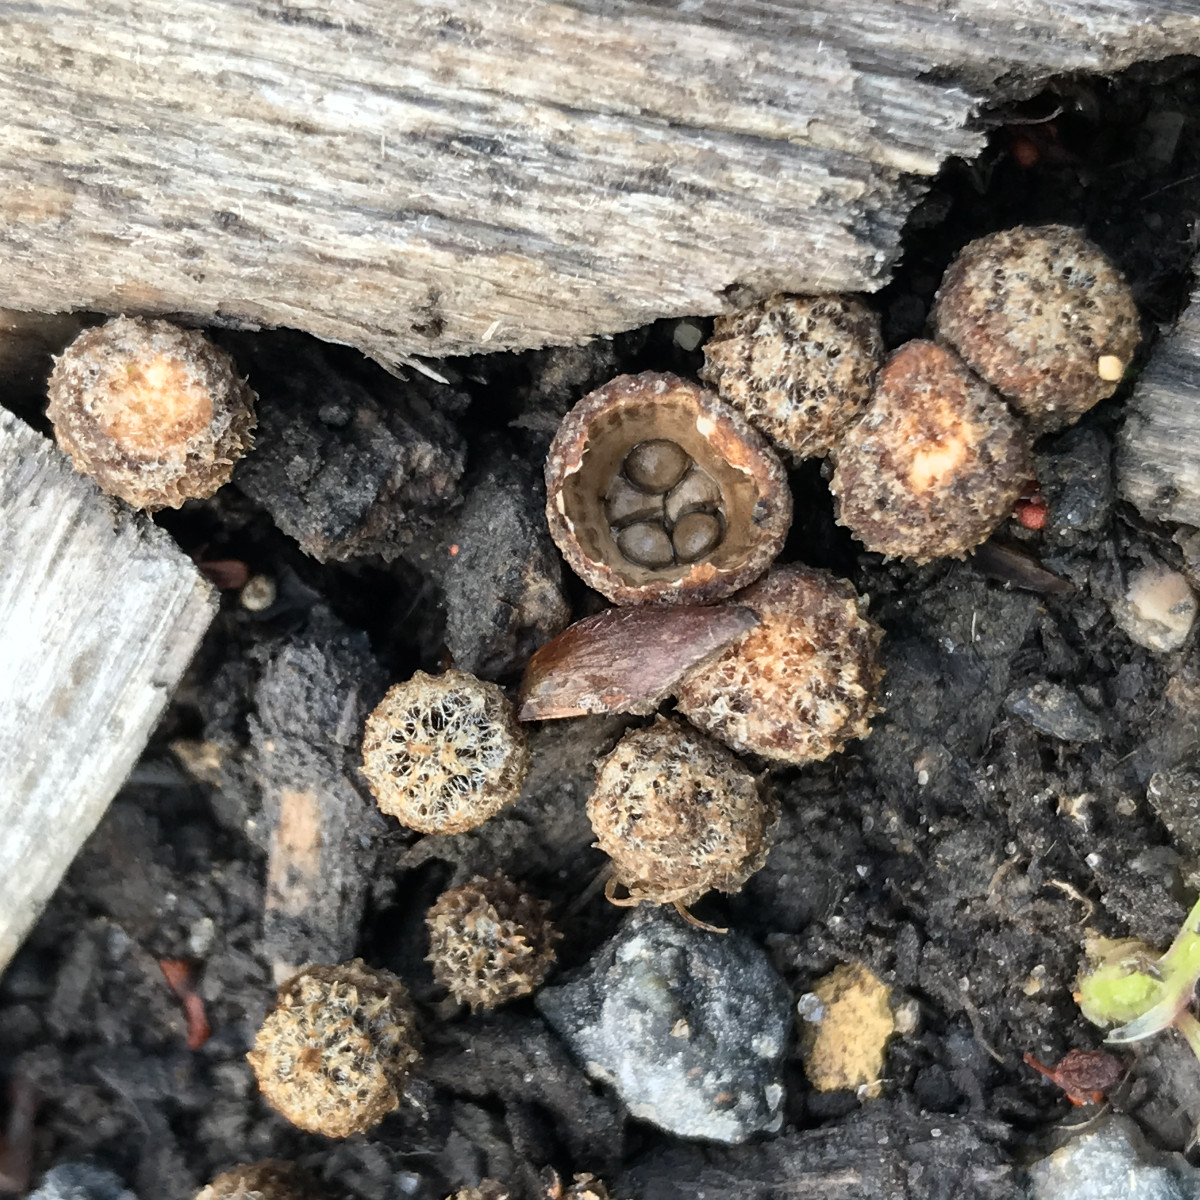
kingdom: Fungi
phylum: Basidiomycota
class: Agaricomycetes
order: Agaricales
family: Agaricaceae
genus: Cyathus
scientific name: Cyathus striatus
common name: stribet redesvamp
